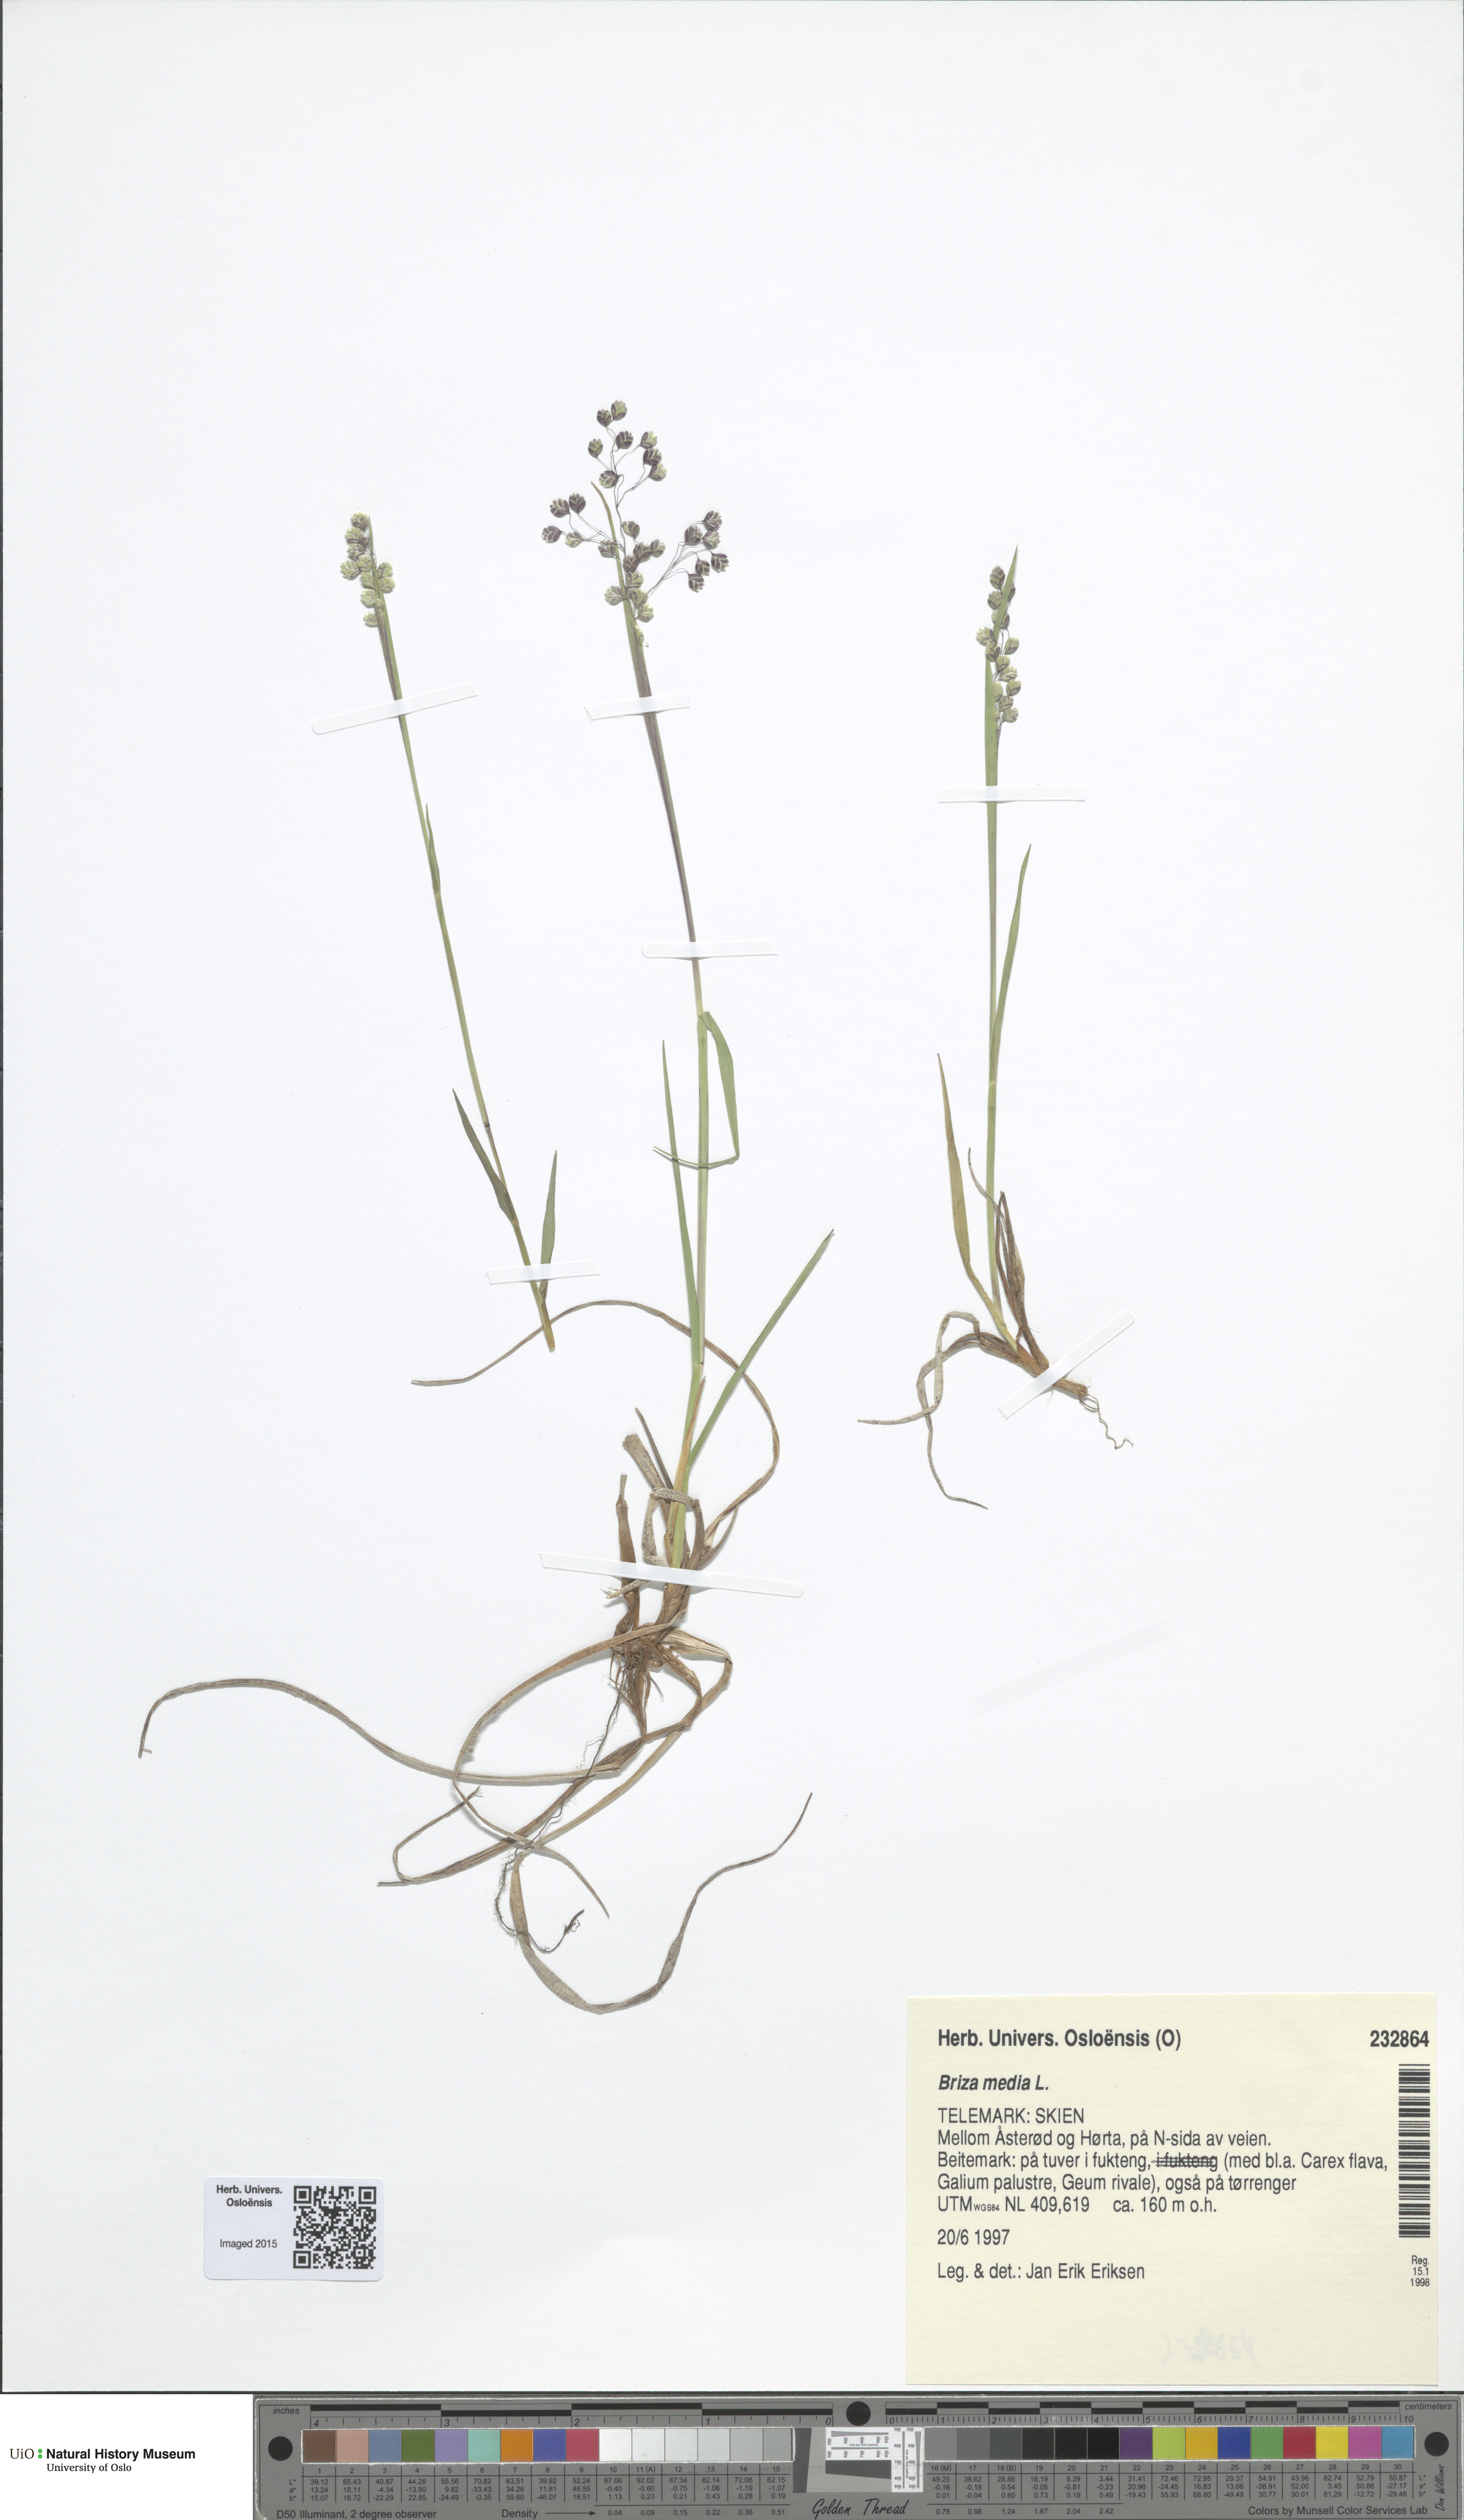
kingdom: Plantae
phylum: Tracheophyta
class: Liliopsida
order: Poales
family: Poaceae
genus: Briza
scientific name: Briza media
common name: Quaking grass
